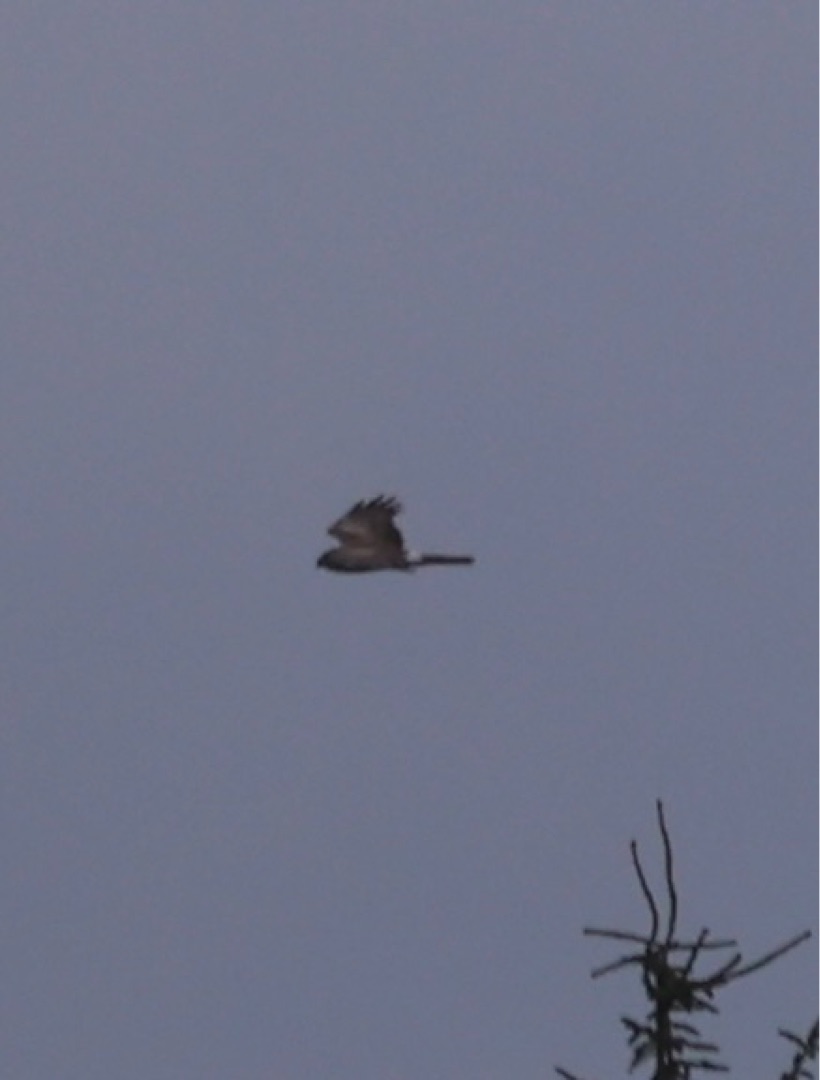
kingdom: Animalia
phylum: Chordata
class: Aves
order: Accipitriformes
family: Accipitridae
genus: Circus
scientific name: Circus cyaneus
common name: Blå kærhøg
